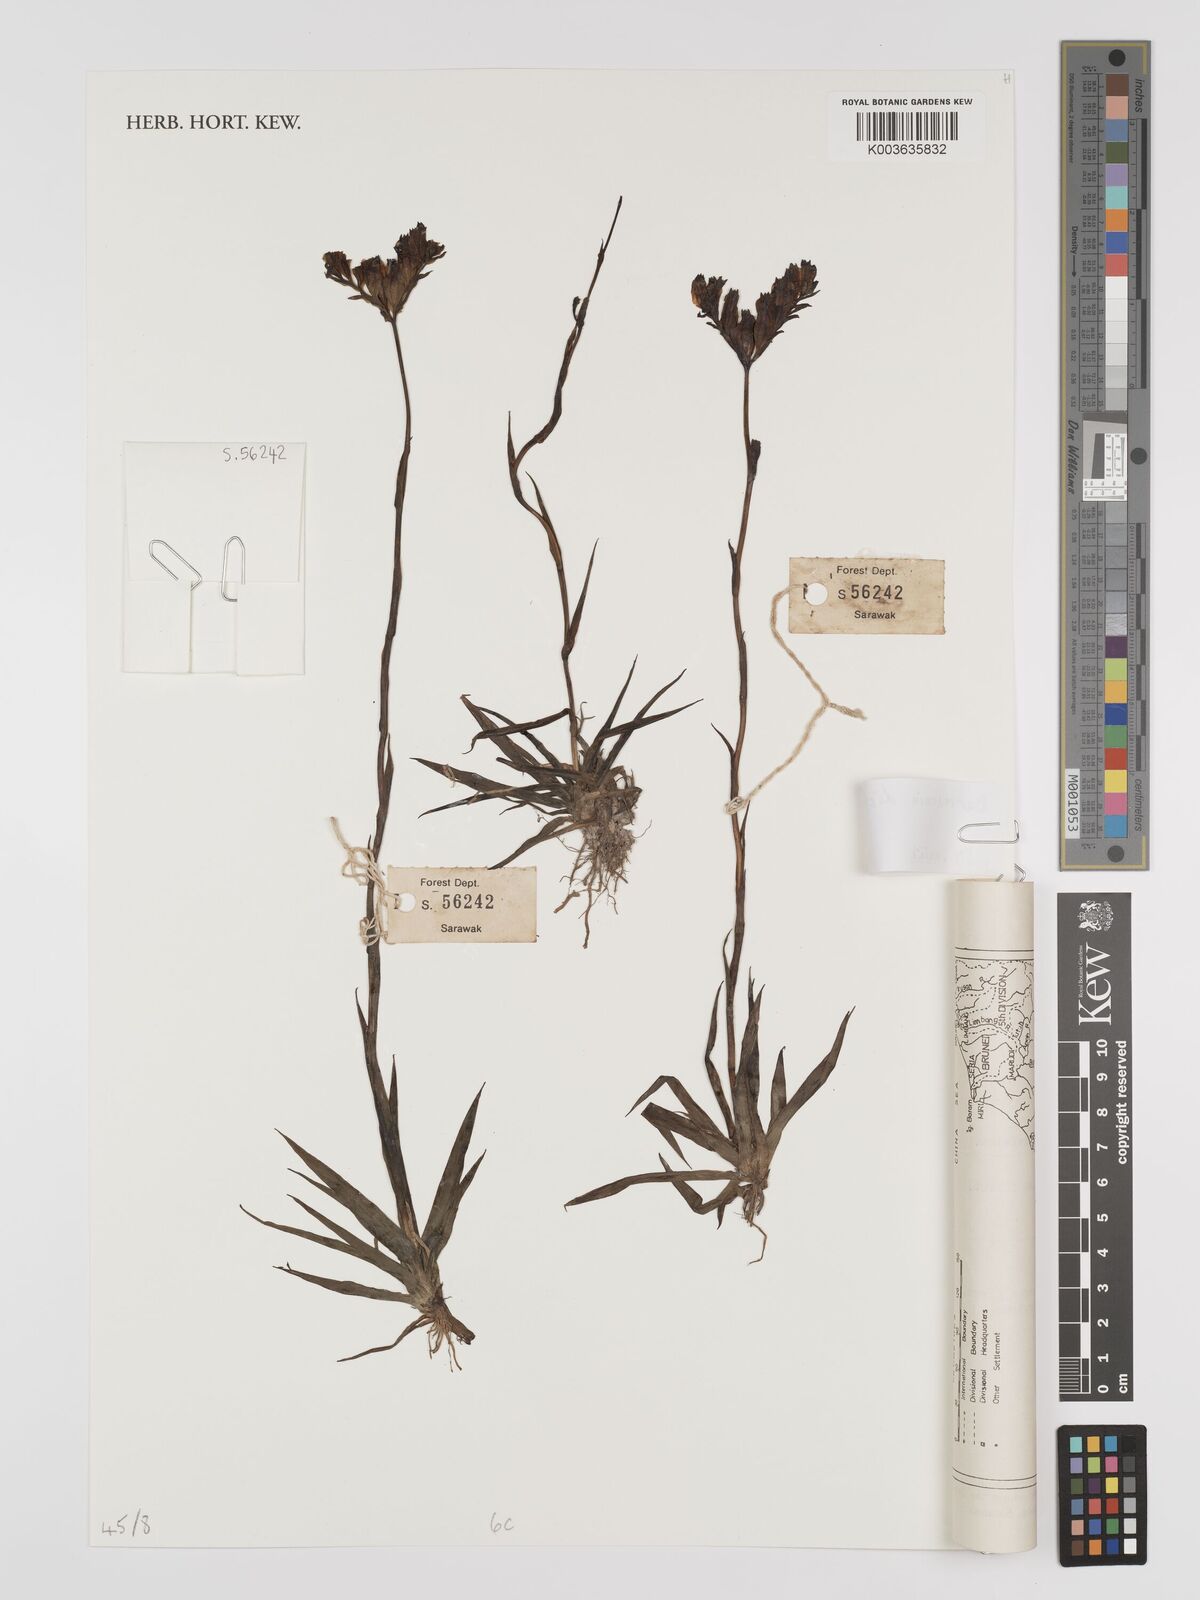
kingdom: Plantae
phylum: Tracheophyta
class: Liliopsida
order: Dioscoreales
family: Burmanniaceae
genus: Burmannia
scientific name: Burmannia disticha
